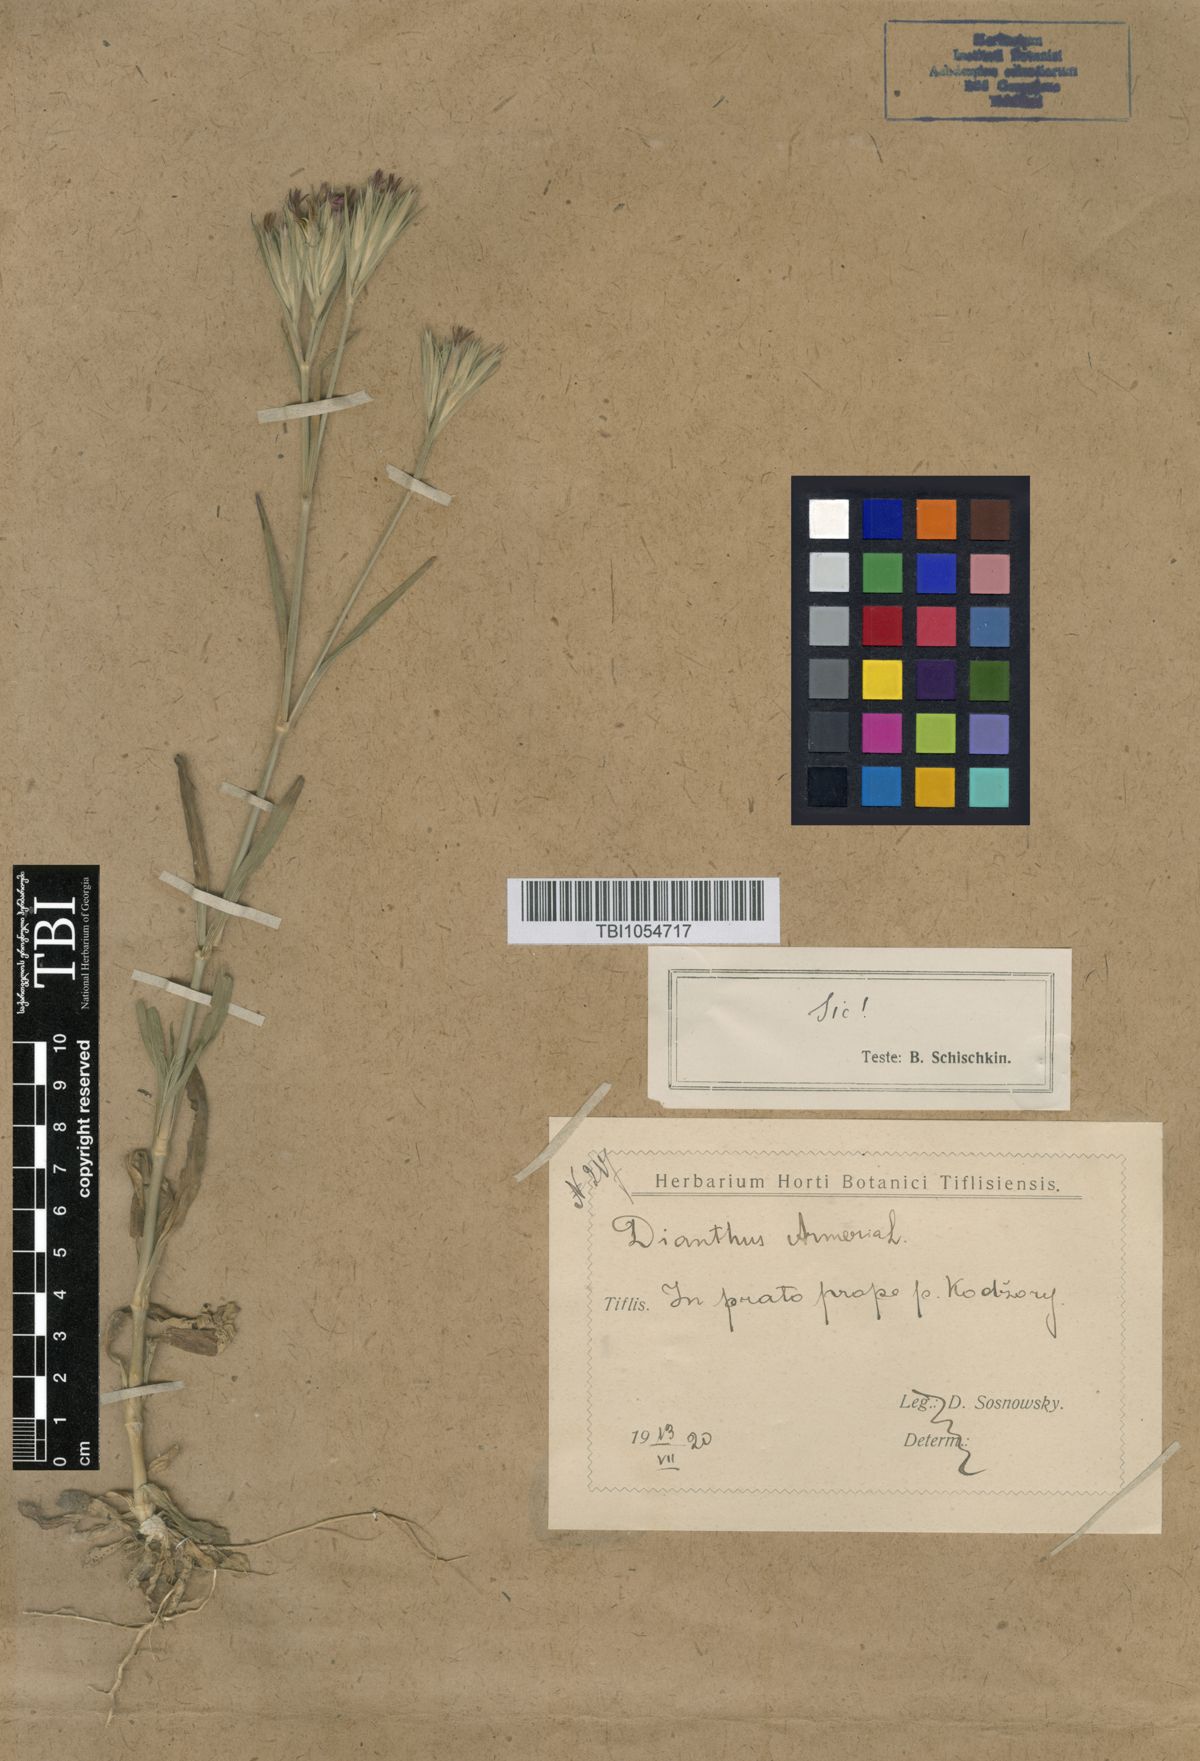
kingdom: Plantae
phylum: Tracheophyta
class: Magnoliopsida
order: Caryophyllales
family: Caryophyllaceae
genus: Dianthus
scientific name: Dianthus armeria
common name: Deptford pink
